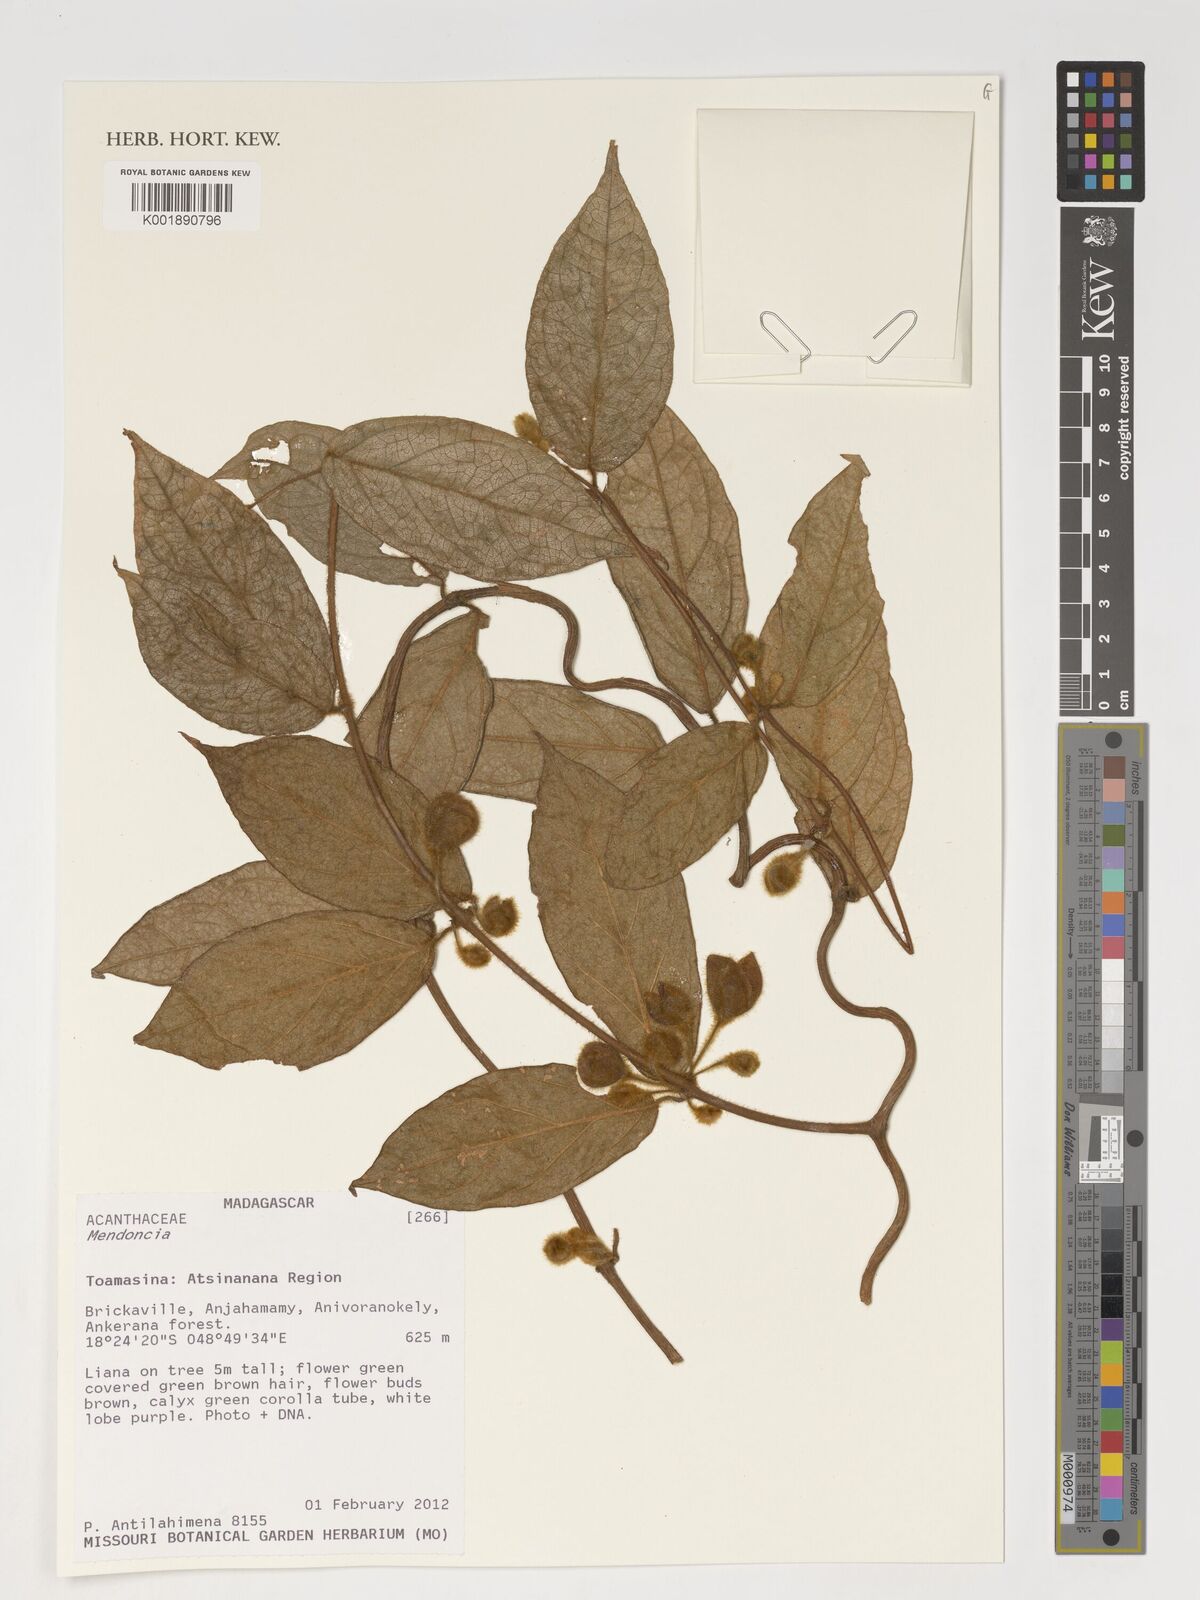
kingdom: Plantae
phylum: Tracheophyta
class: Magnoliopsida
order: Lamiales
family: Acanthaceae
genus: Mendoncia
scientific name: Mendoncia
